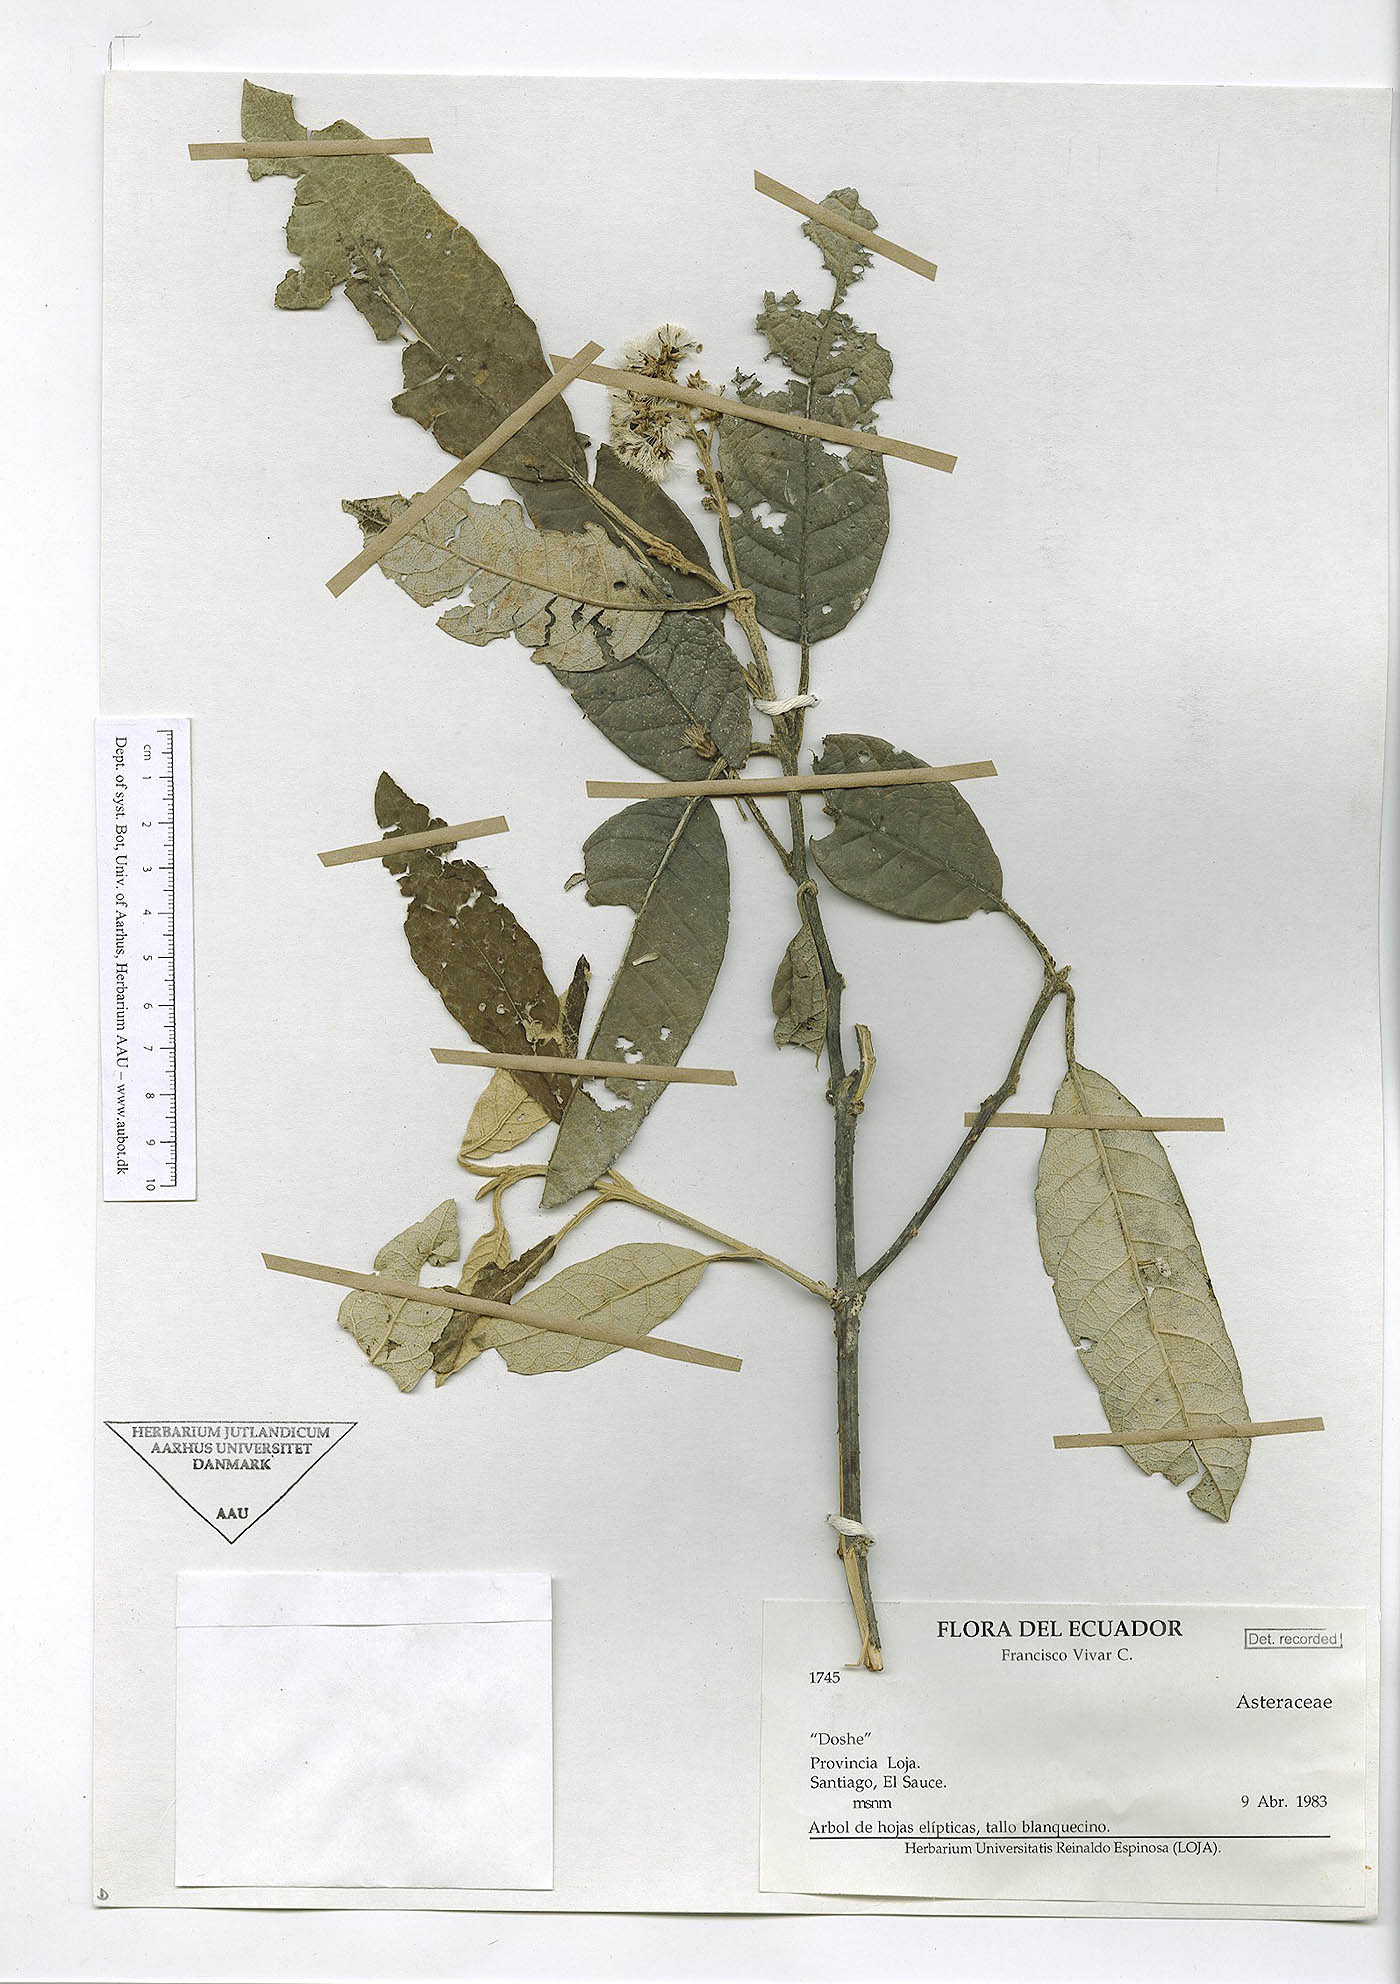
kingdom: Plantae
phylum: Tracheophyta
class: Magnoliopsida
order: Asterales
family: Asteraceae
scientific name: Asteraceae
